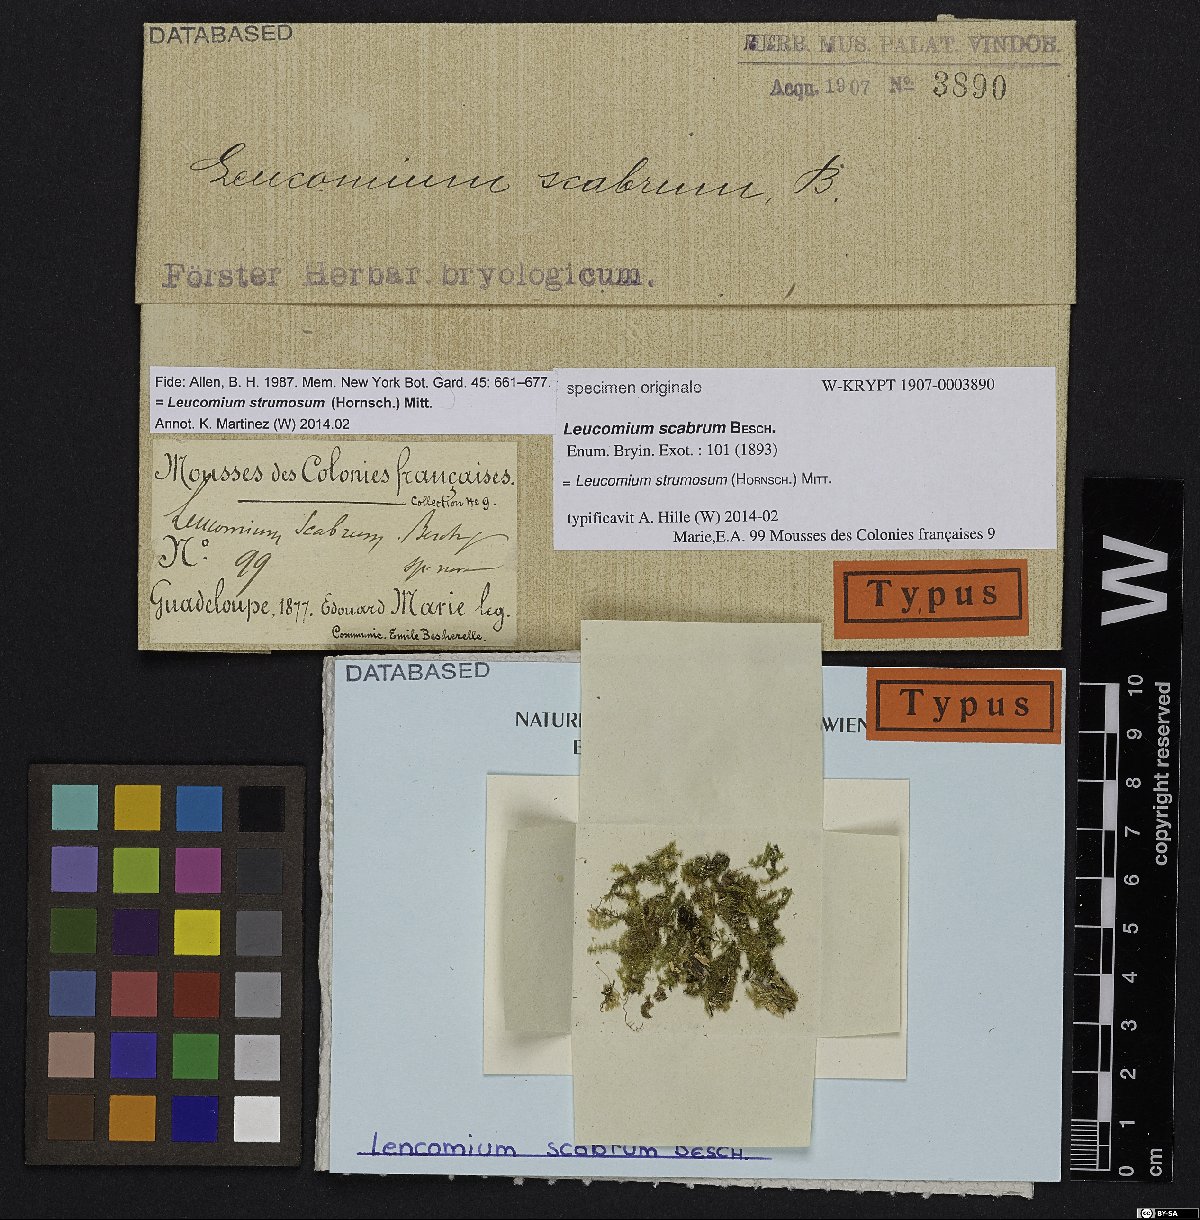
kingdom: Plantae
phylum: Bryophyta
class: Bryopsida
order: Hookeriales
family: Leucomiaceae
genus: Leucomium
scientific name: Leucomium strumosum
